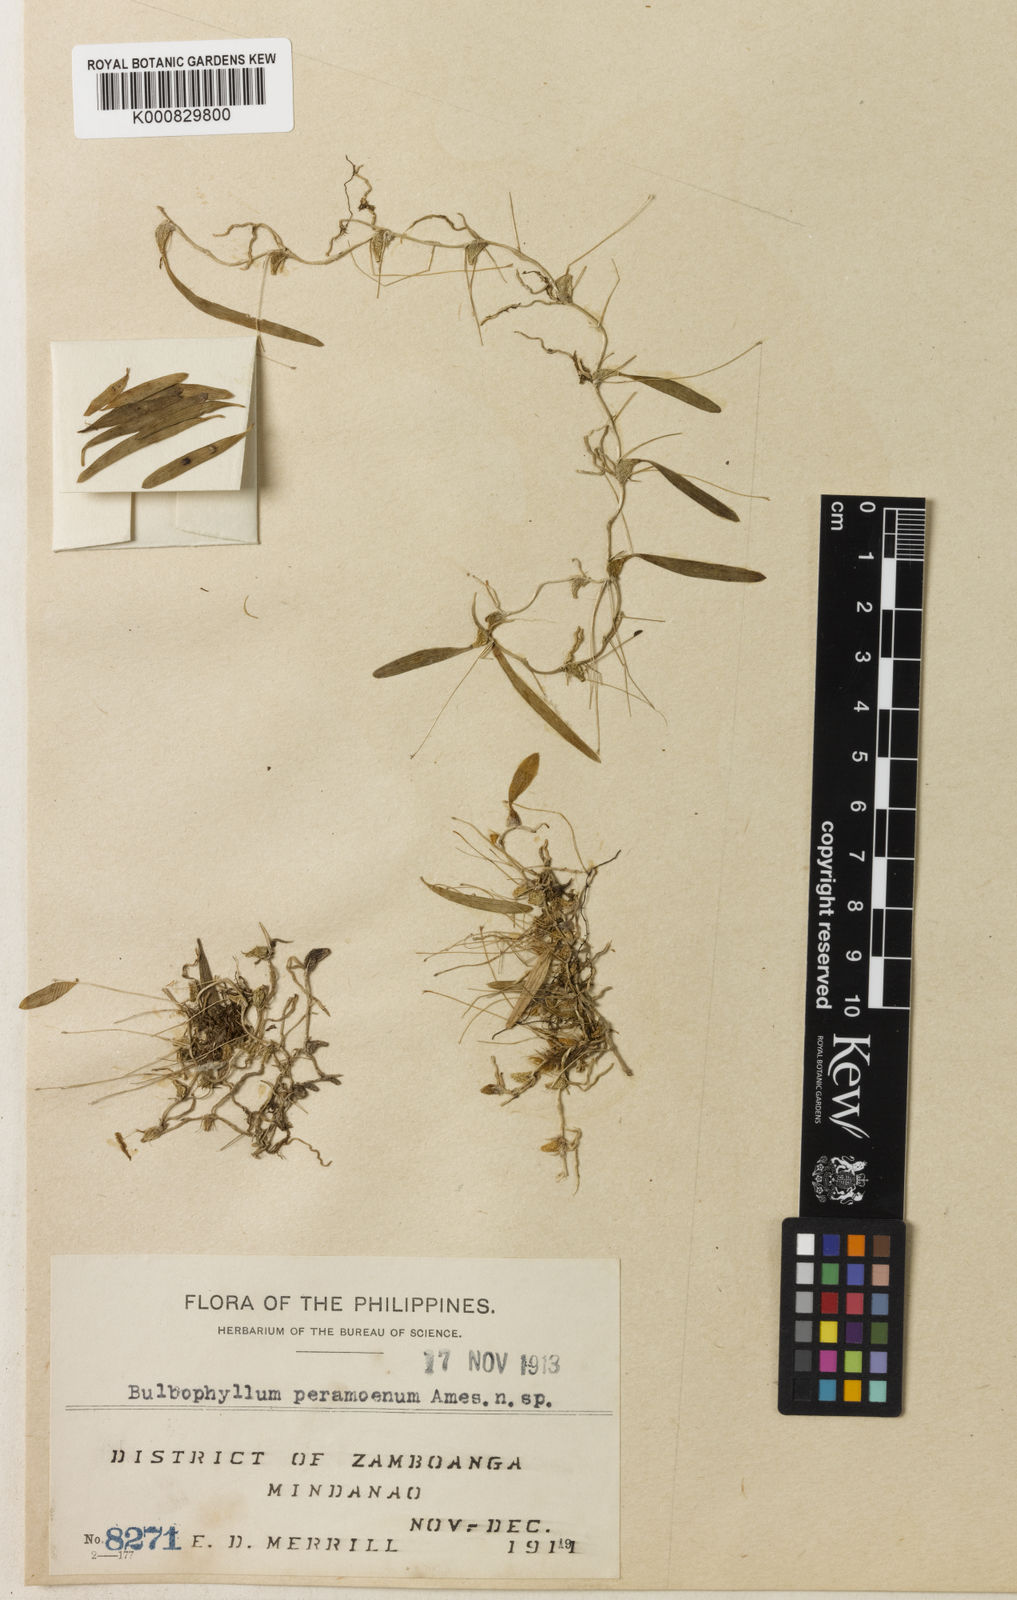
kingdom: Plantae
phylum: Tracheophyta
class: Liliopsida
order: Asparagales
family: Orchidaceae
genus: Bulbophyllum
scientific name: Bulbophyllum peramoenum
